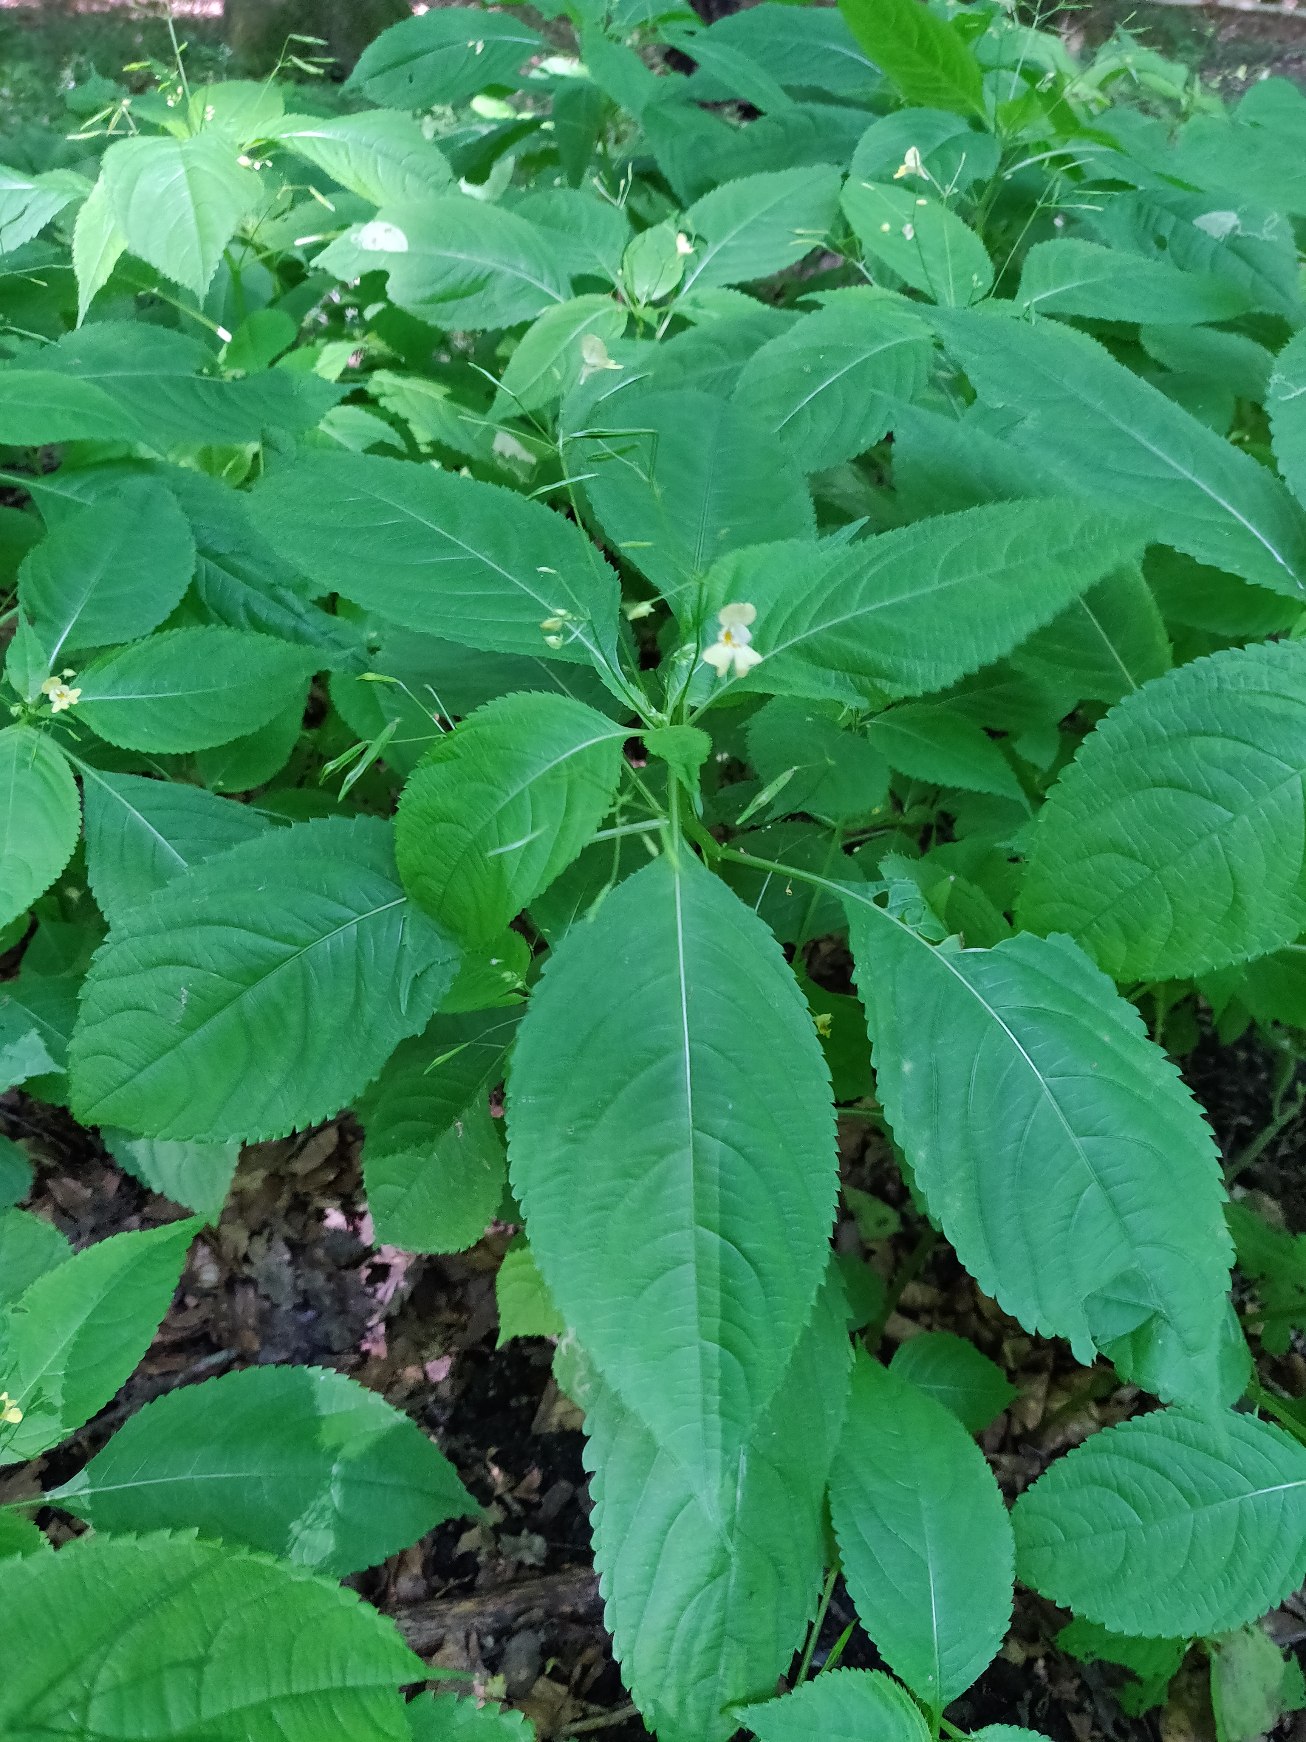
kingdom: Plantae
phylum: Tracheophyta
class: Magnoliopsida
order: Ericales
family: Balsaminaceae
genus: Impatiens
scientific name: Impatiens parviflora
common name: Småblomstret balsamin
